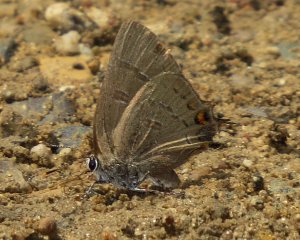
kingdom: Animalia
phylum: Arthropoda
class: Insecta
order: Lepidoptera
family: Lycaenidae
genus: Satyrium
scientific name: Satyrium calanus
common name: Banded Hairstreak
